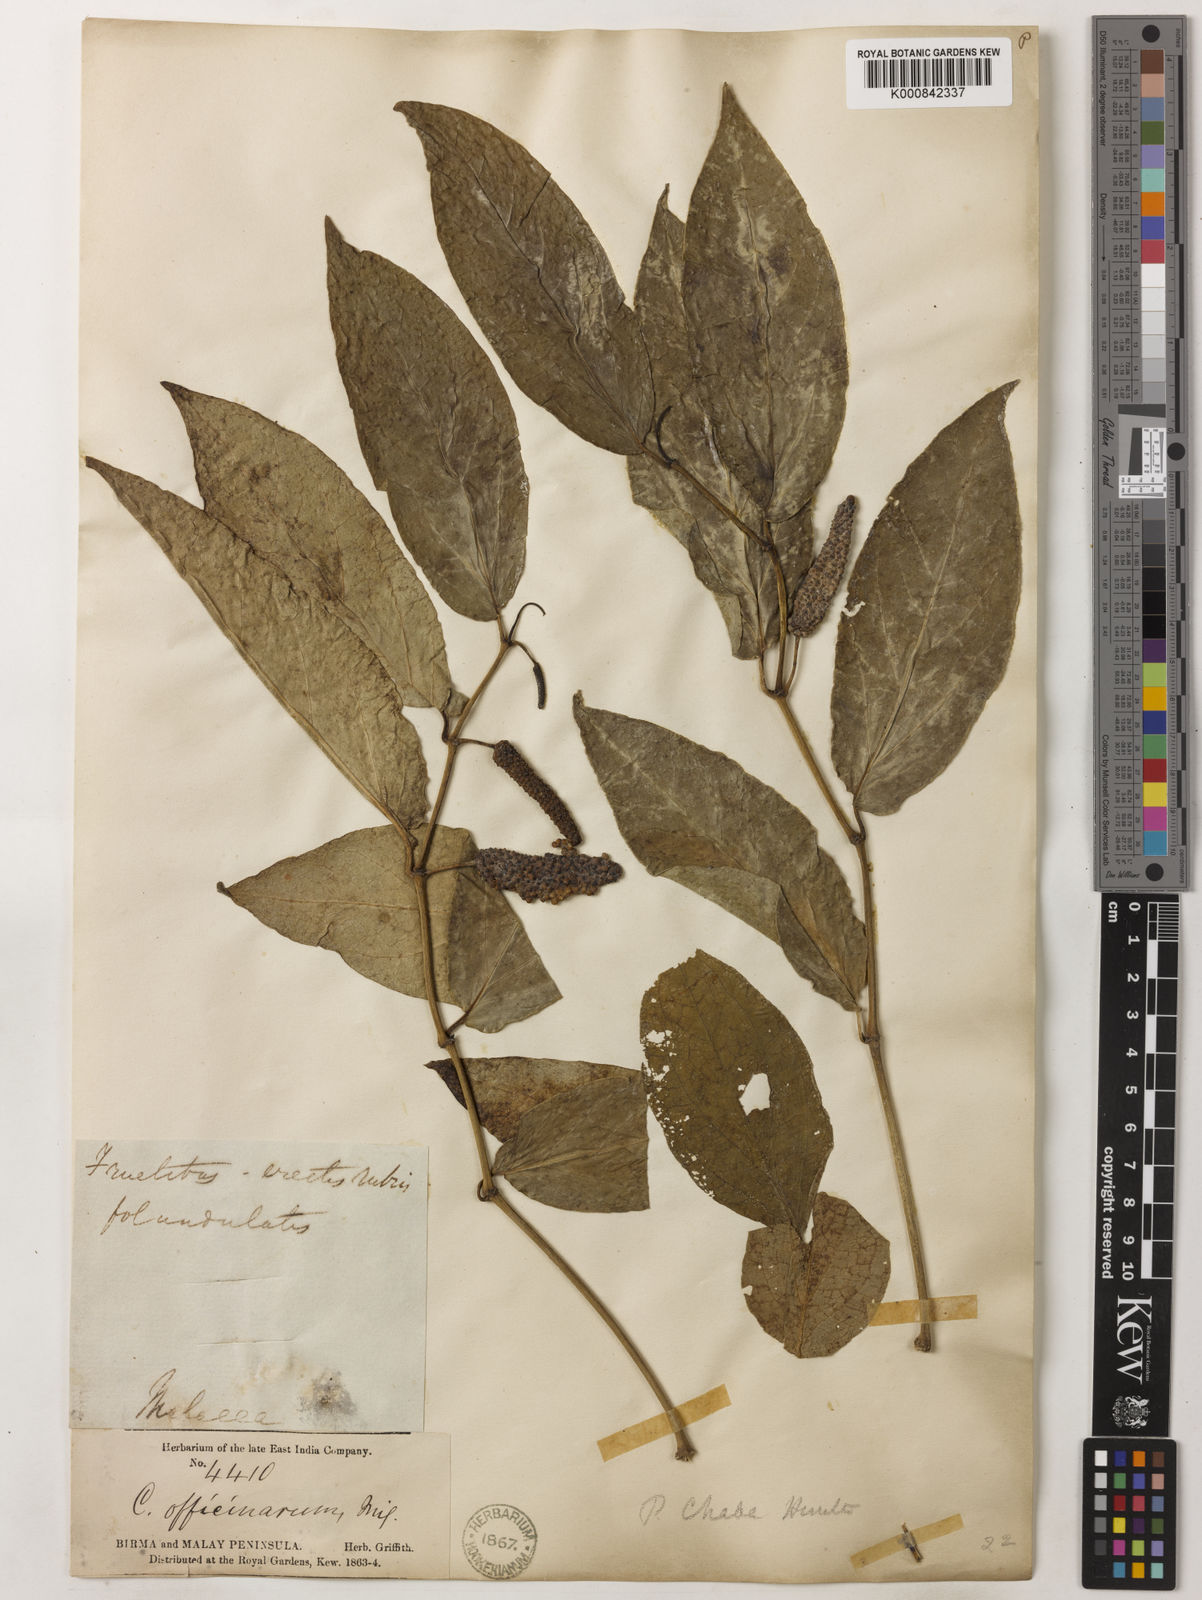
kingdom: Plantae
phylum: Tracheophyta
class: Magnoliopsida
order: Piperales
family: Piperaceae
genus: Piper
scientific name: Piper retrofractum
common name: Javanese long pepper
